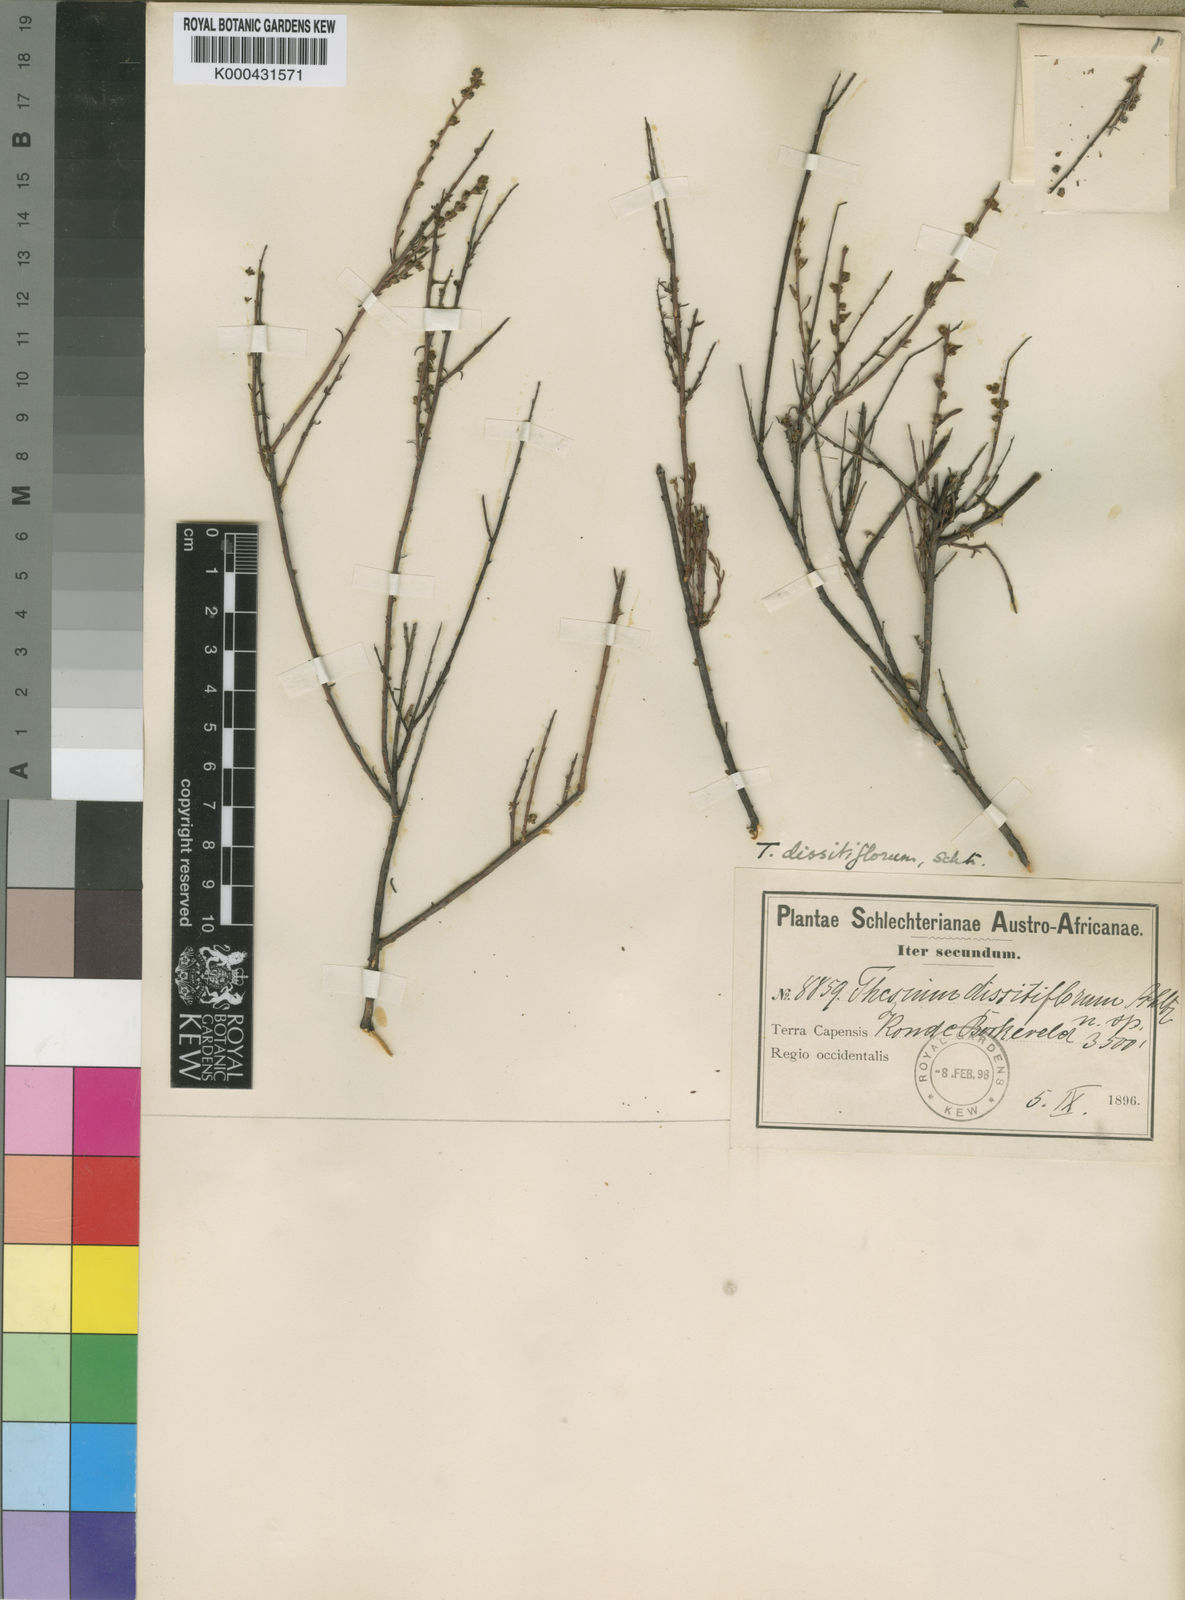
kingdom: Plantae
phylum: Tracheophyta
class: Magnoliopsida
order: Santalales
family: Thesiaceae
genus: Thesium
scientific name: Thesium dissitiflorum
